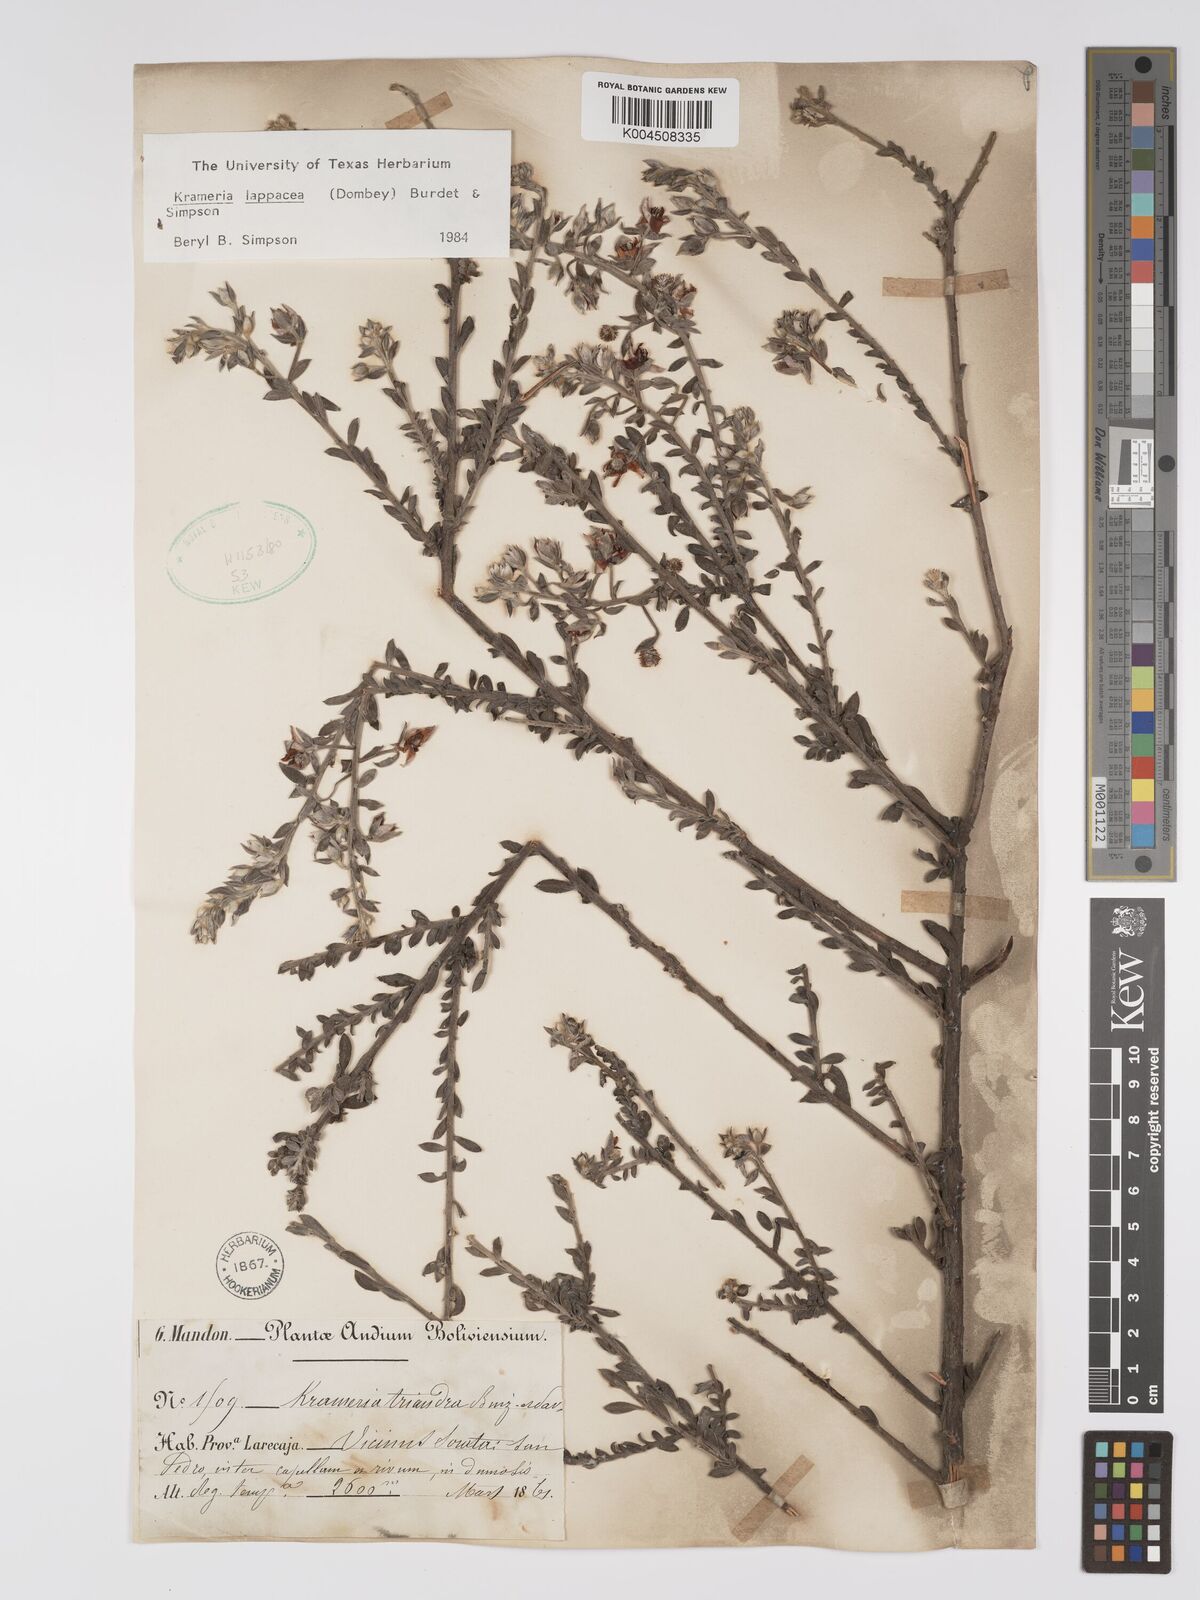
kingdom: Plantae
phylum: Tracheophyta
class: Magnoliopsida
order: Zygophyllales
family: Krameriaceae
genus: Krameria
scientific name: Krameria lappacea
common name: Rhatany
